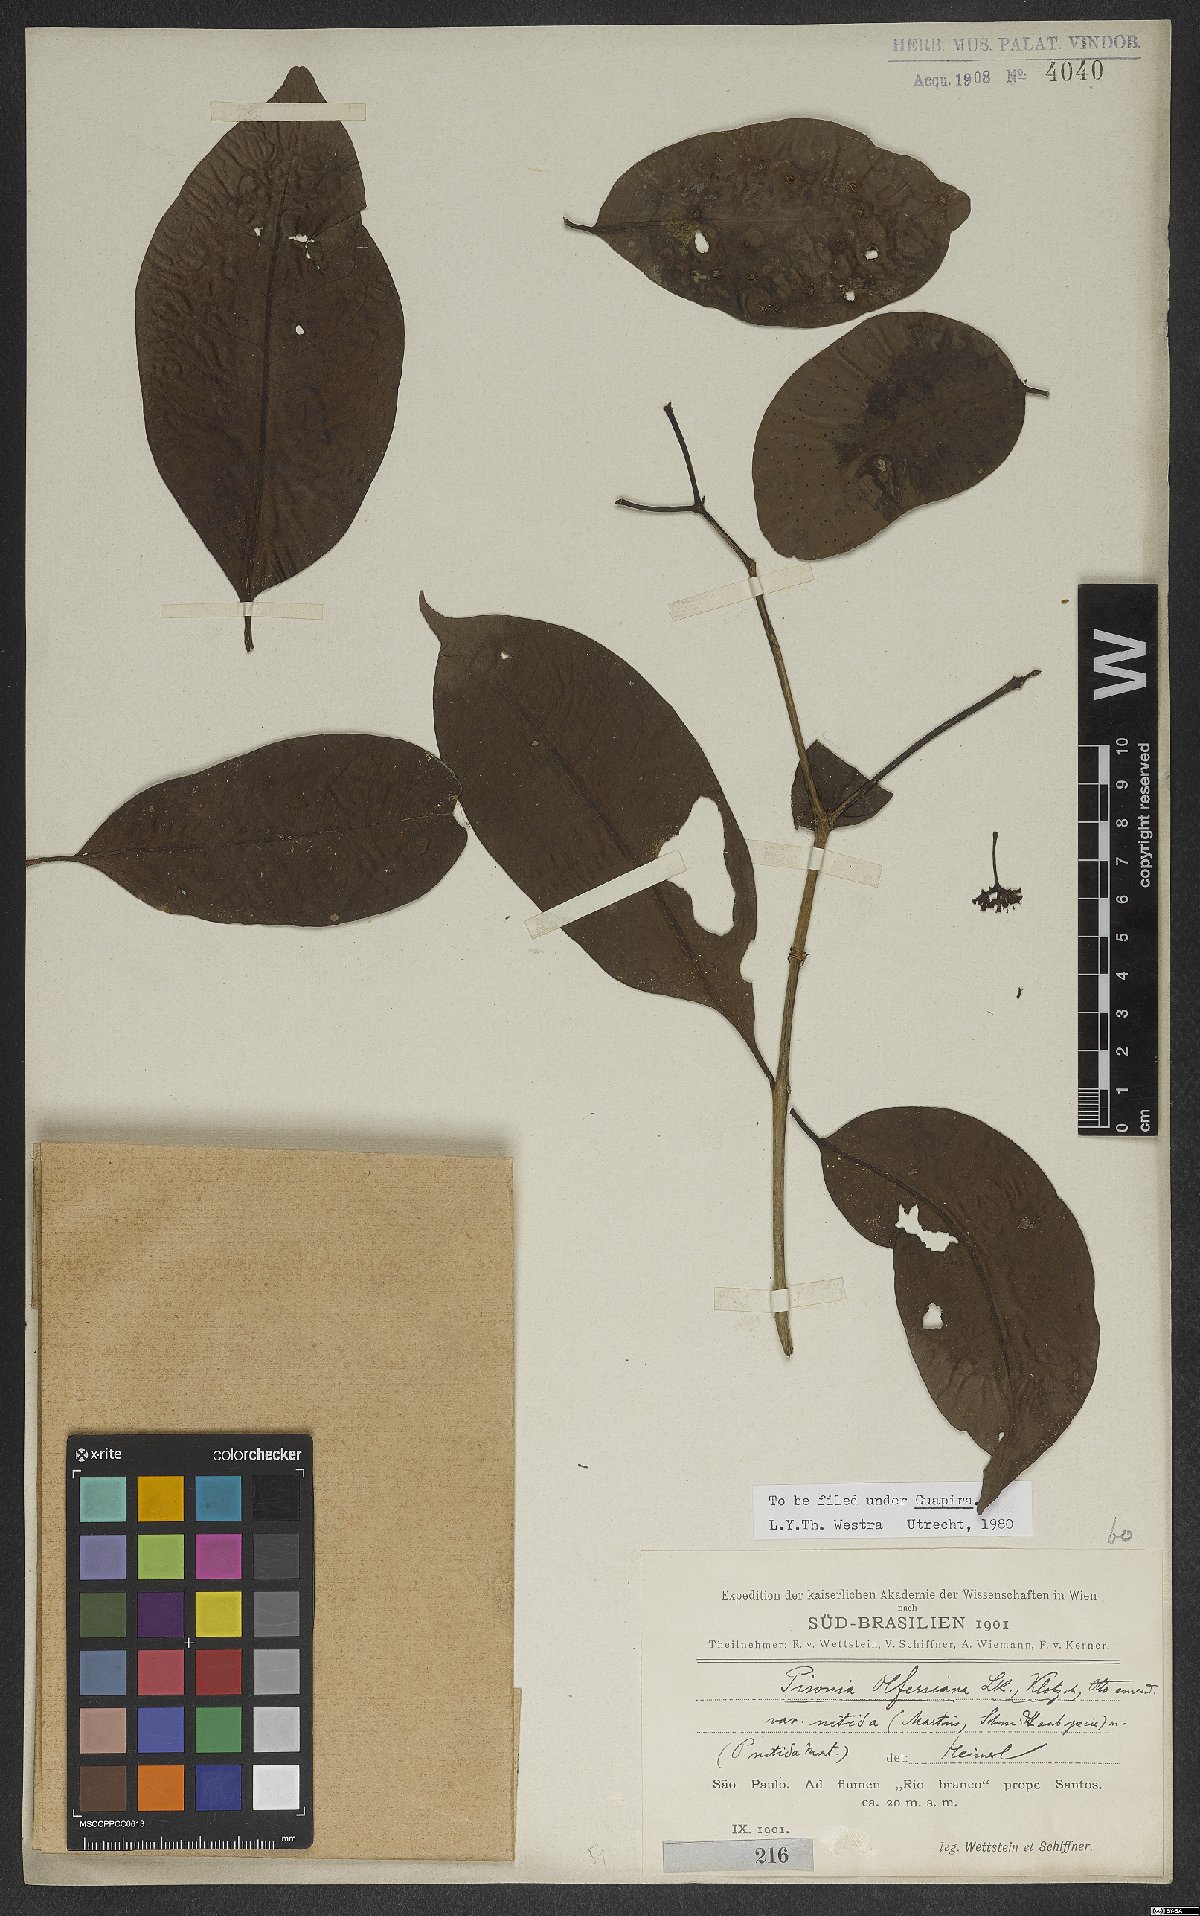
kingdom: Plantae
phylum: Tracheophyta
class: Magnoliopsida
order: Caryophyllales
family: Nyctaginaceae
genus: Guapira
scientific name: Guapira nitida
